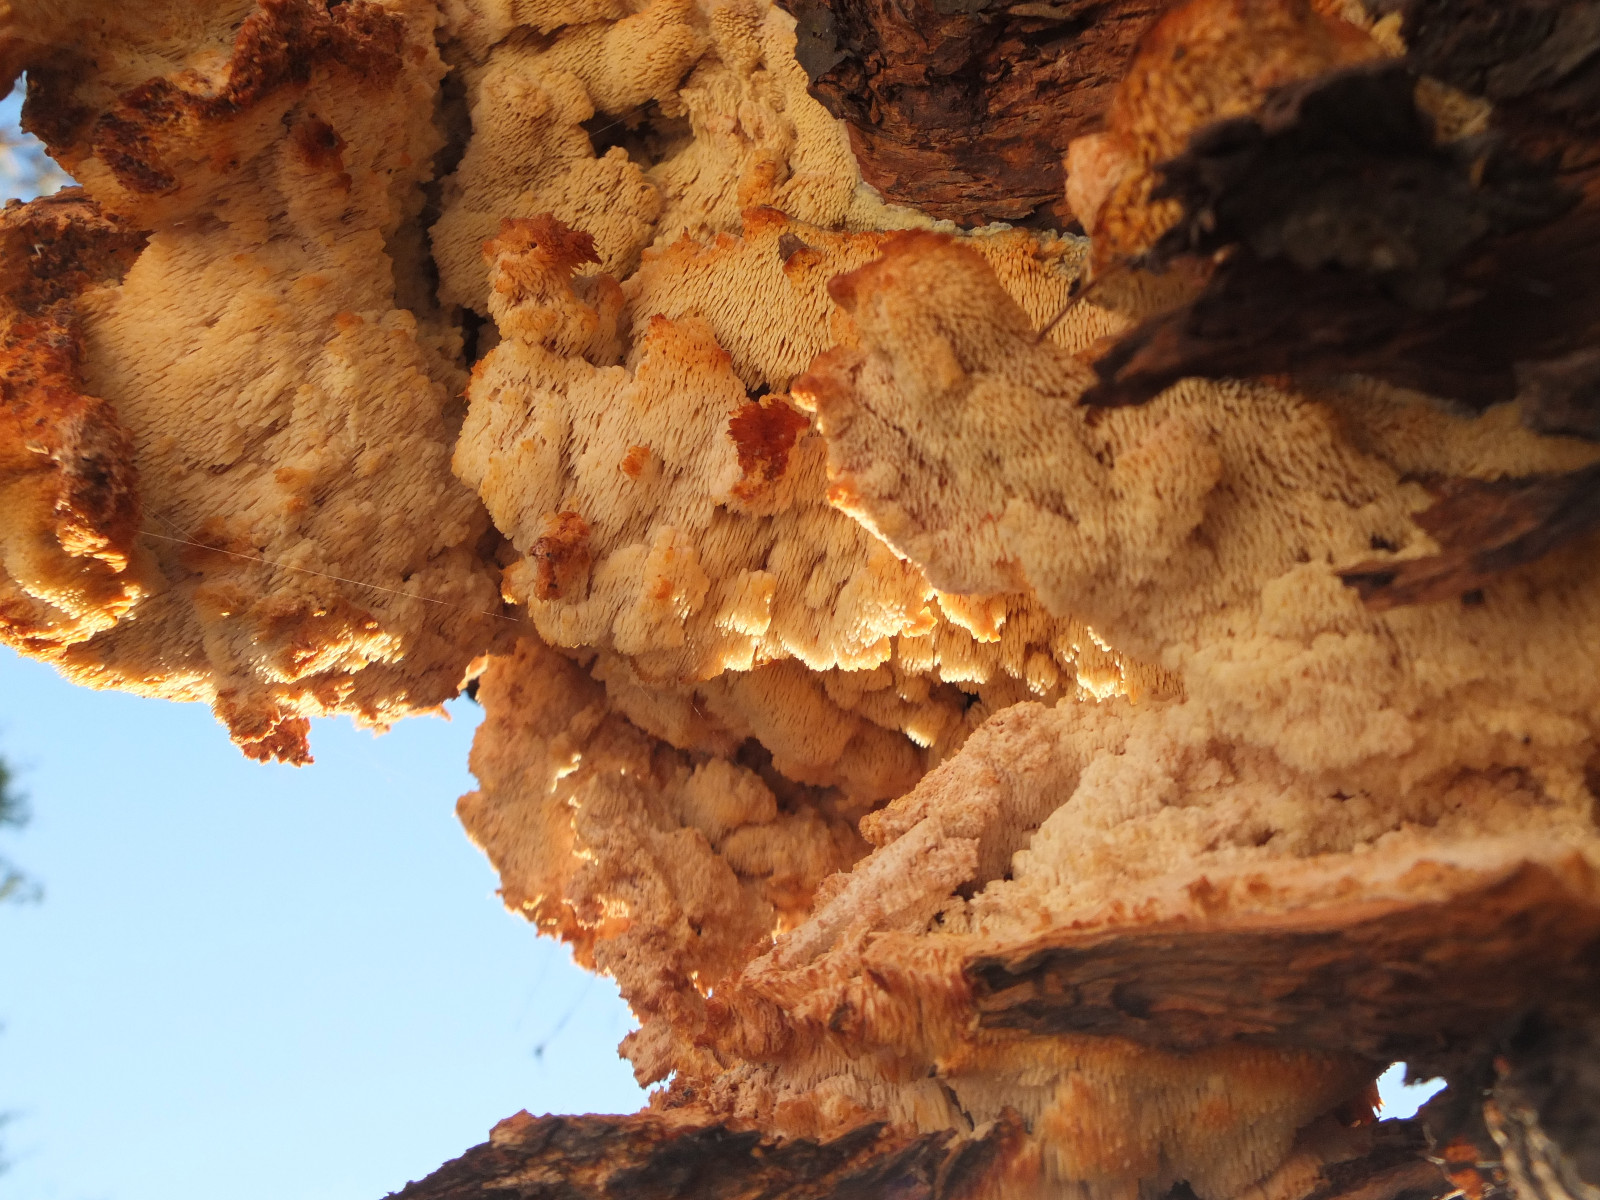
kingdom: Fungi
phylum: Basidiomycota
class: Agaricomycetes
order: Polyporales
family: Meruliaceae
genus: Sarcodontia
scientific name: Sarcodontia setosa
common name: æblepig
